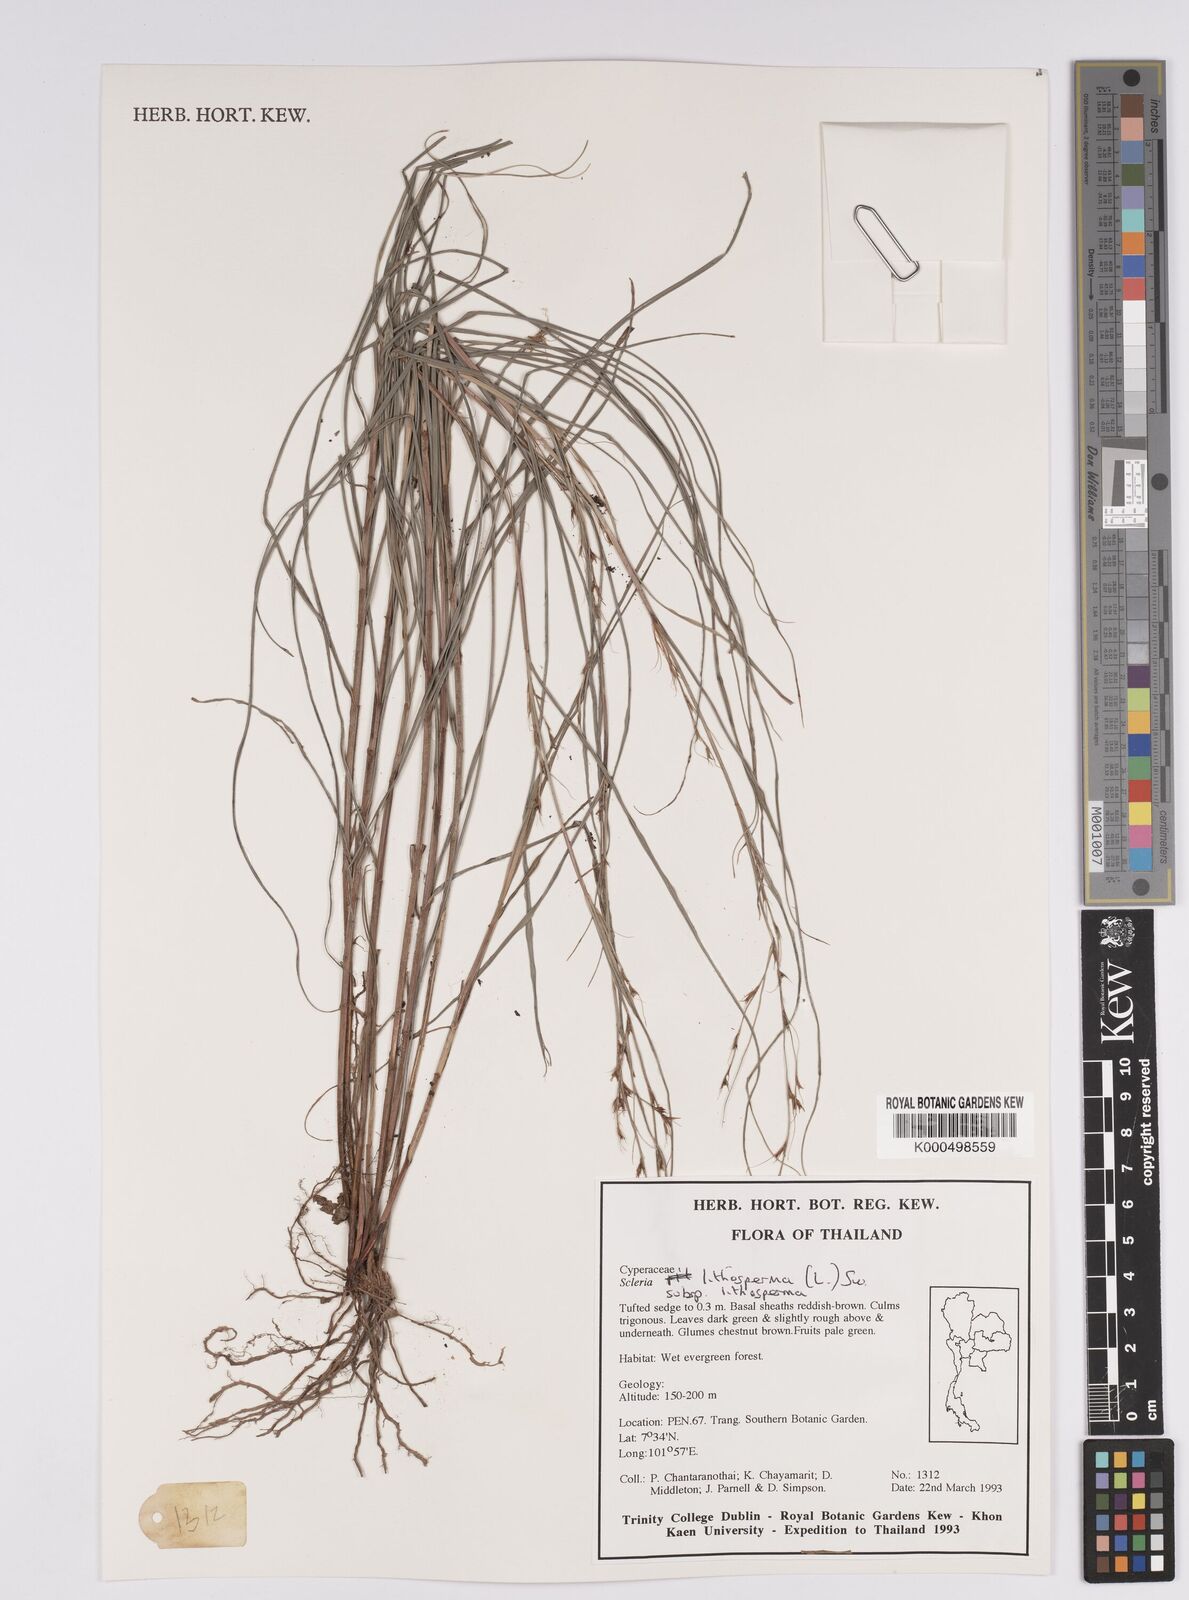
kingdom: Plantae
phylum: Tracheophyta
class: Liliopsida
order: Poales
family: Cyperaceae
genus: Scleria
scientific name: Scleria lithosperma
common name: Florida keys nut-rush
